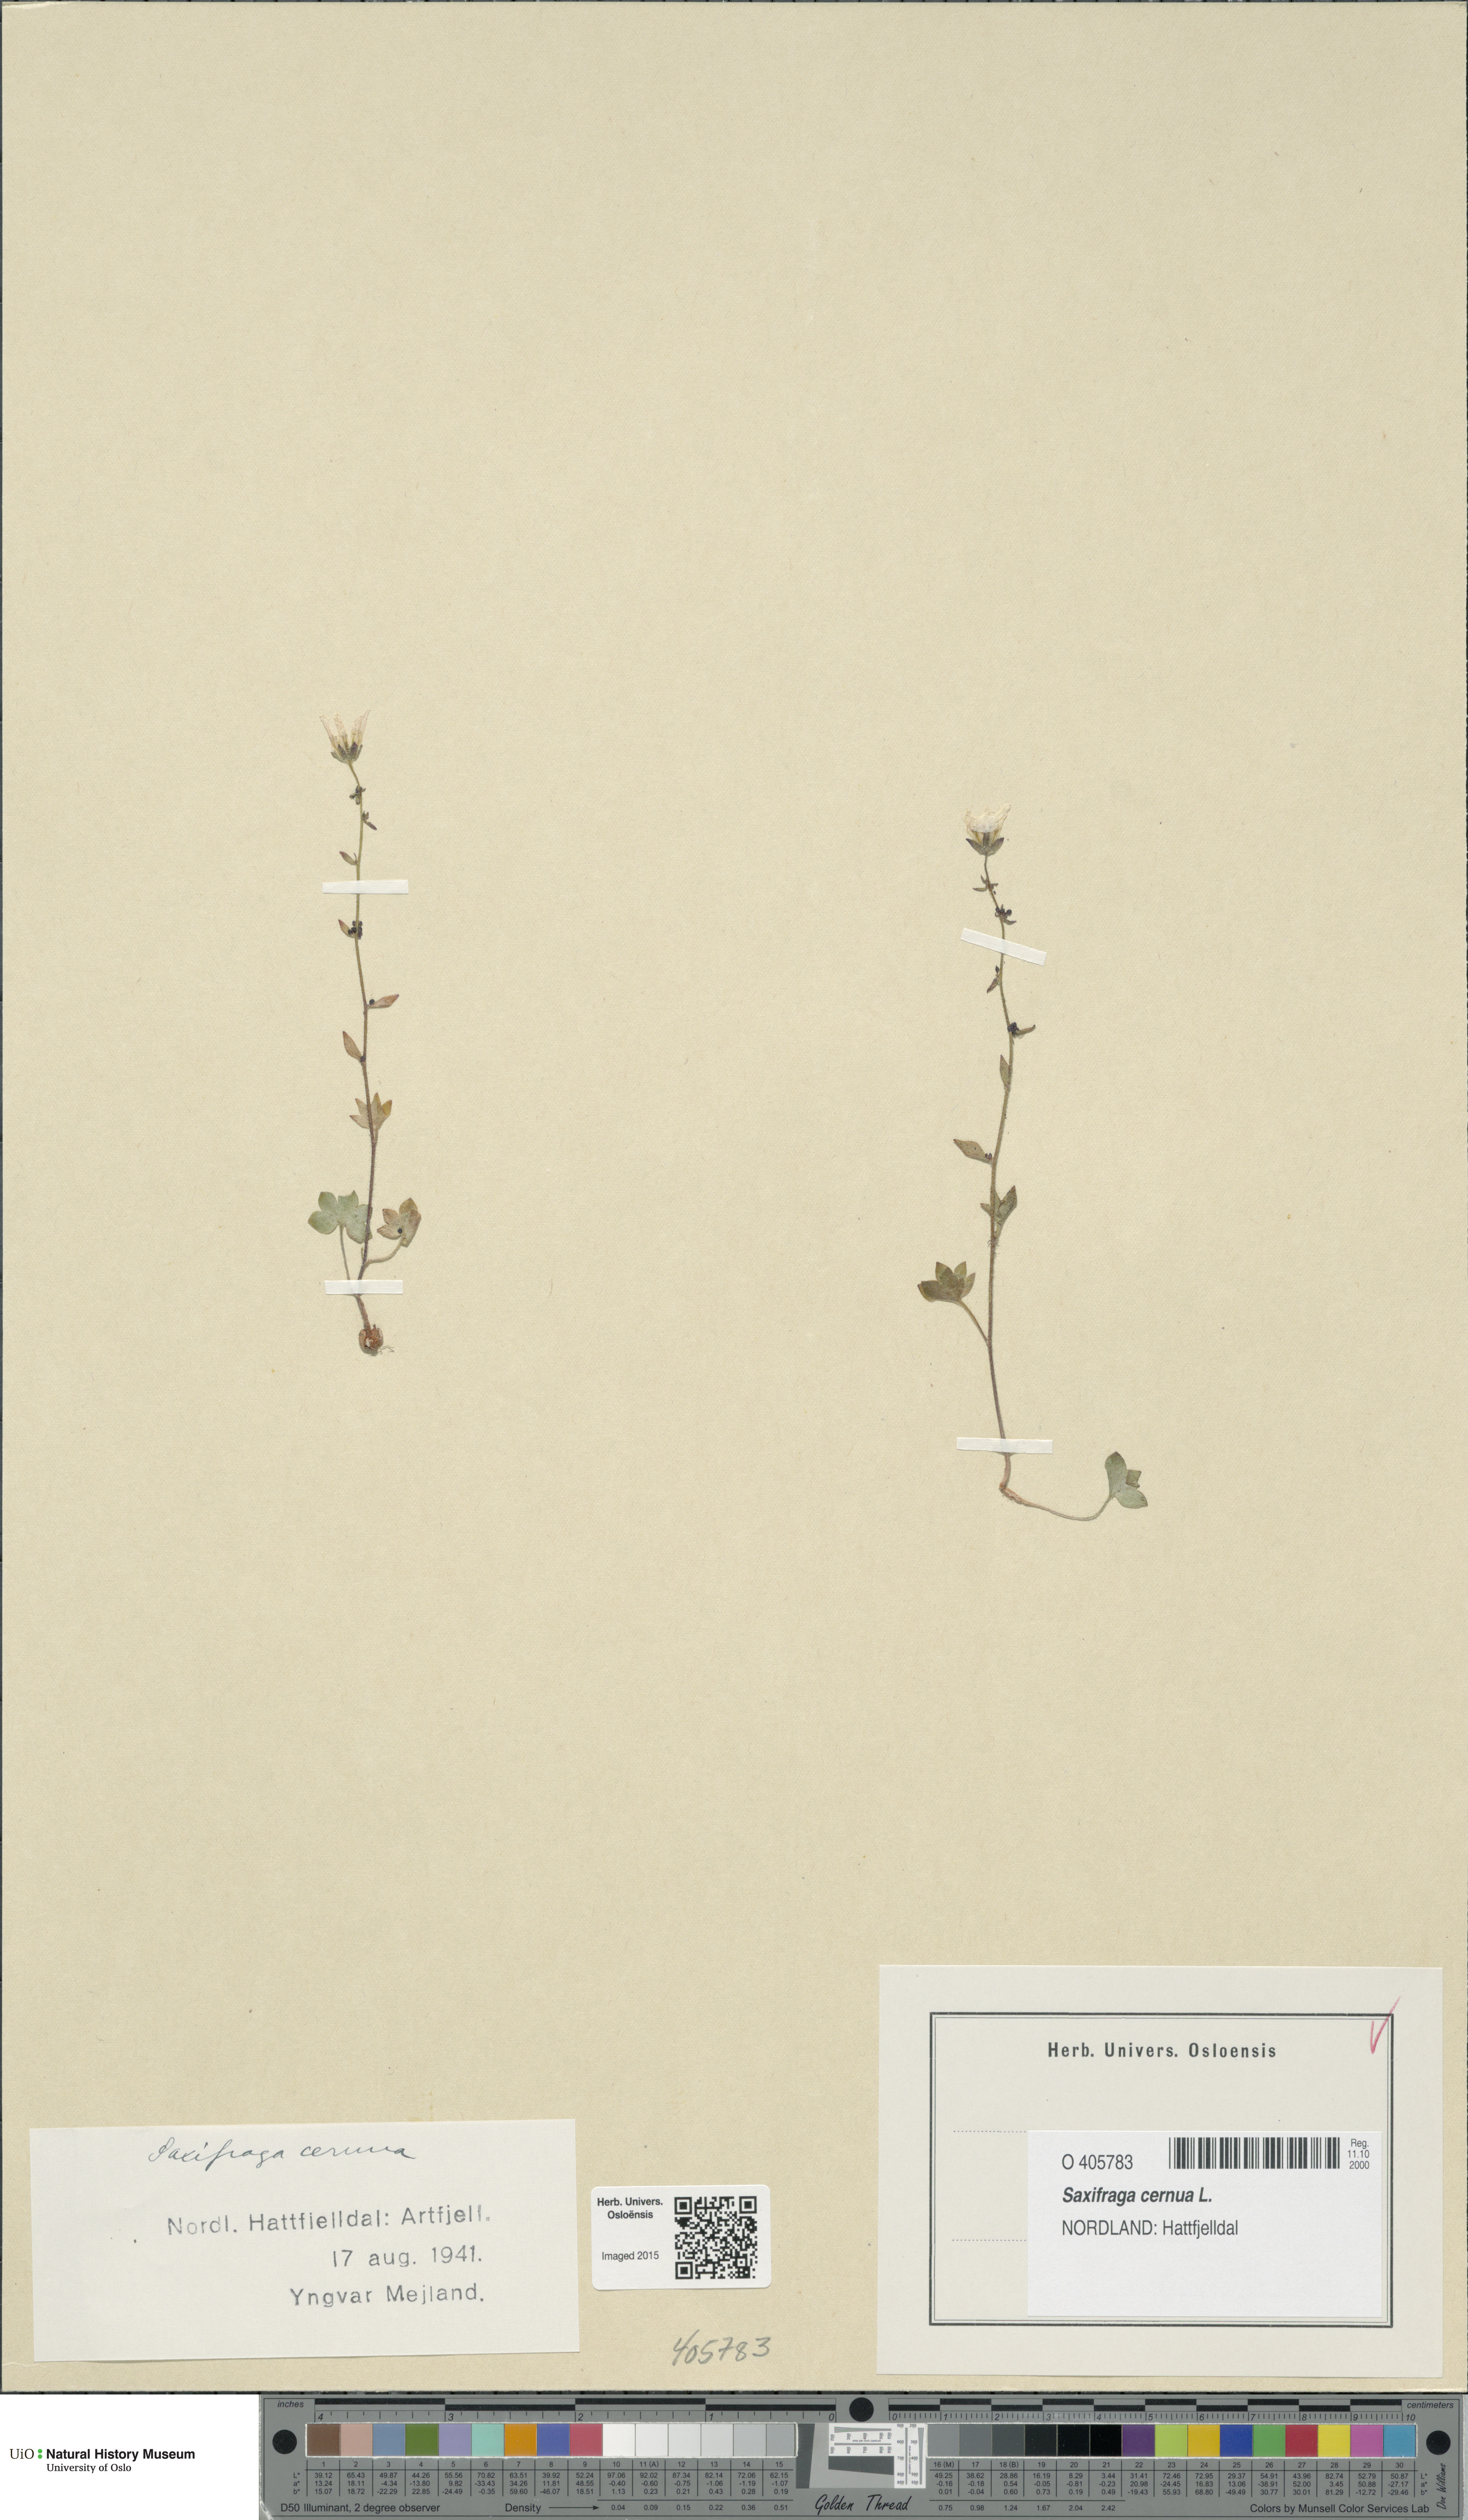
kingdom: Plantae
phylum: Tracheophyta
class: Magnoliopsida
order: Saxifragales
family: Saxifragaceae
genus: Saxifraga
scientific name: Saxifraga cernua
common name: Drooping saxifrage
